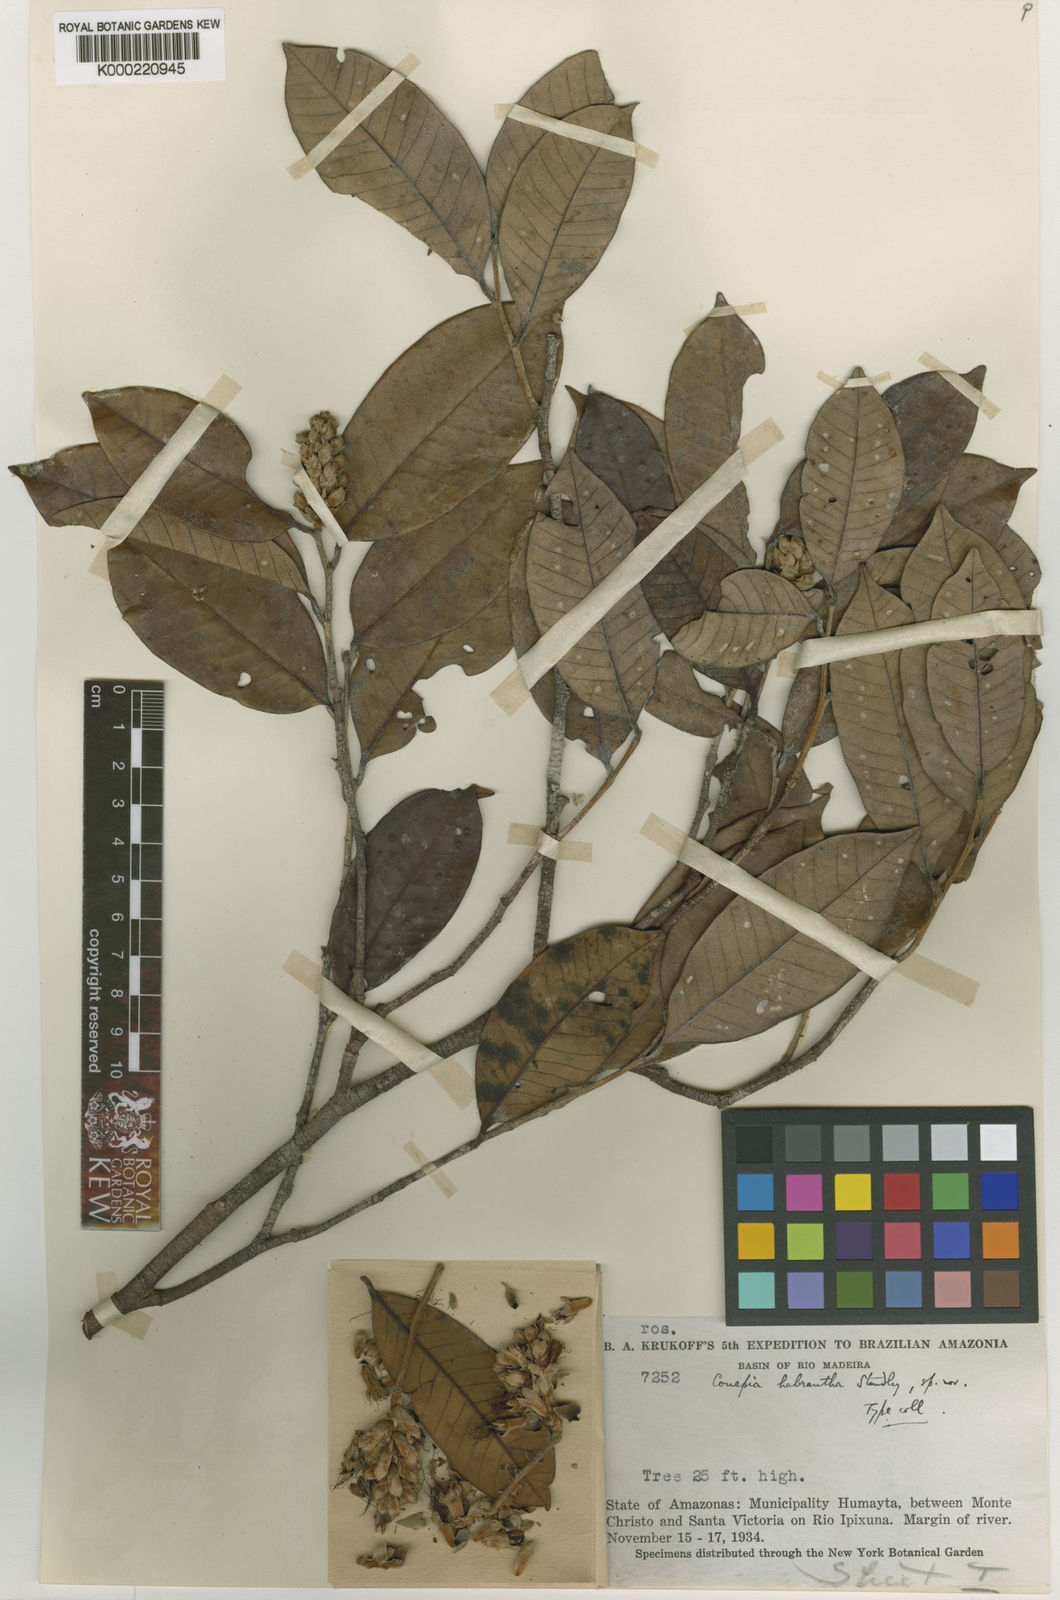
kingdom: Plantae
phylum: Tracheophyta
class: Magnoliopsida
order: Malpighiales
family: Chrysobalanaceae
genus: Couepia
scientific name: Couepia habrantha
